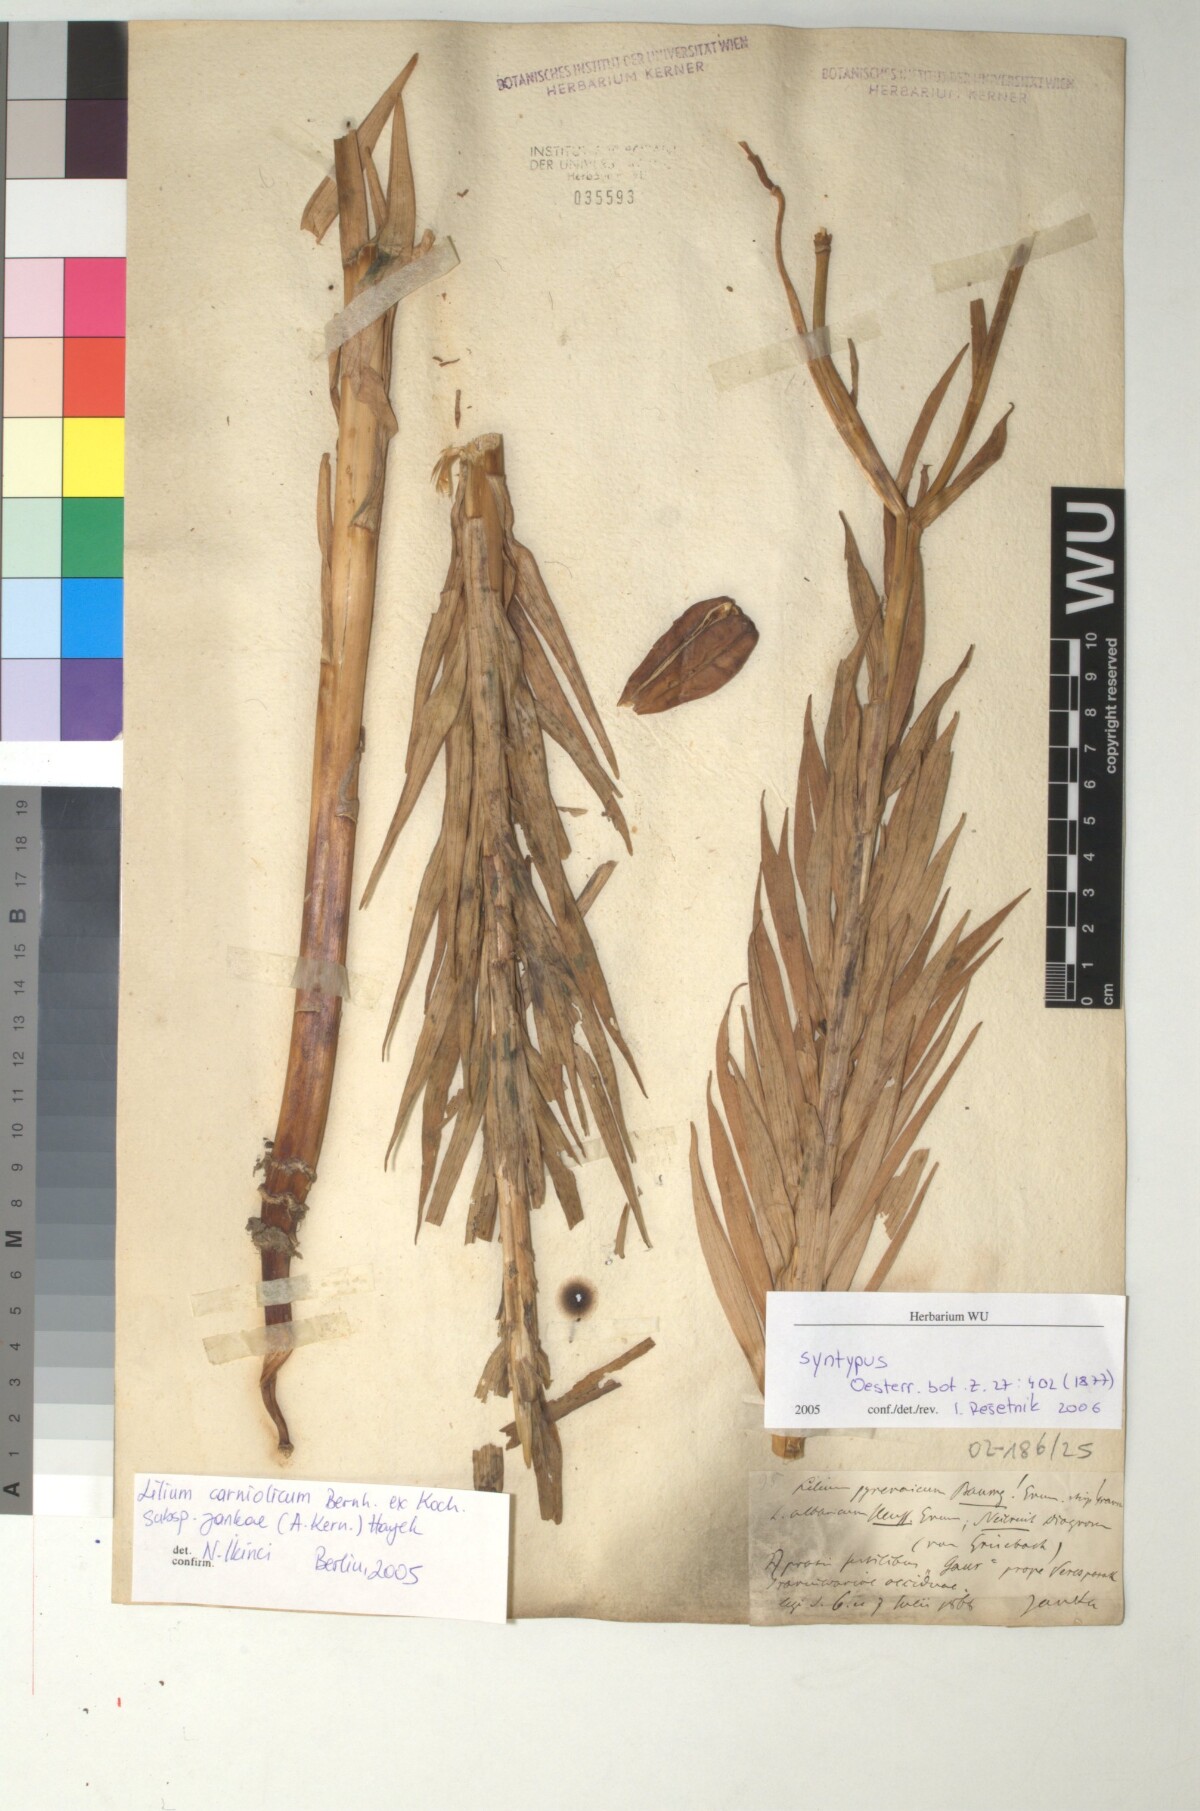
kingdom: Plantae
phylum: Tracheophyta
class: Liliopsida
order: Liliales
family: Liliaceae
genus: Lilium
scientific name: Lilium jankae
